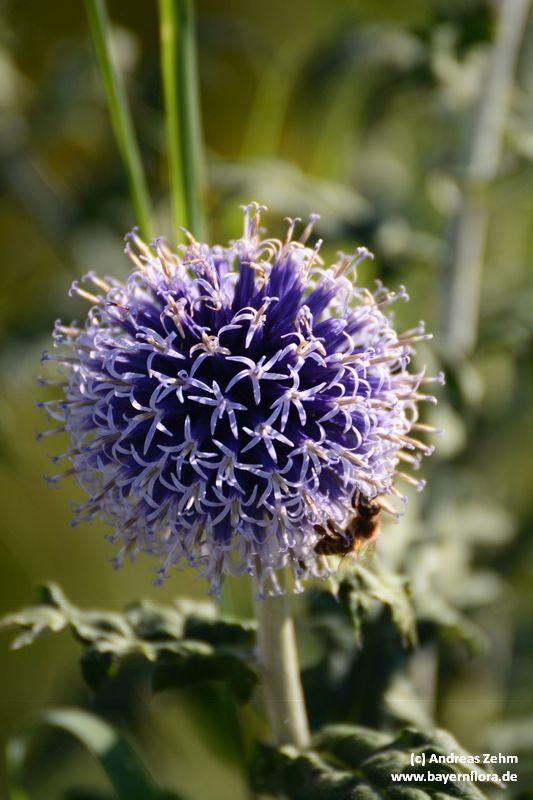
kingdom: Plantae
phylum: Tracheophyta
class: Magnoliopsida
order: Asterales
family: Asteraceae
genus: Echinops
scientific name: Echinops bannaticus
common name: Blue globe-thistle
